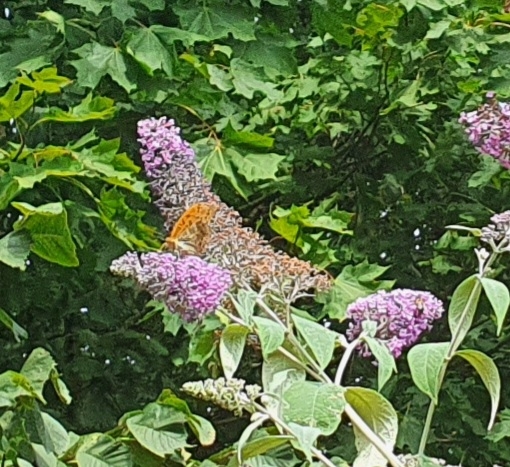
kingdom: Animalia
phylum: Arthropoda
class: Insecta
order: Lepidoptera
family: Nymphalidae
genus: Argynnis
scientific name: Argynnis paphia
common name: Kejserkåbe
